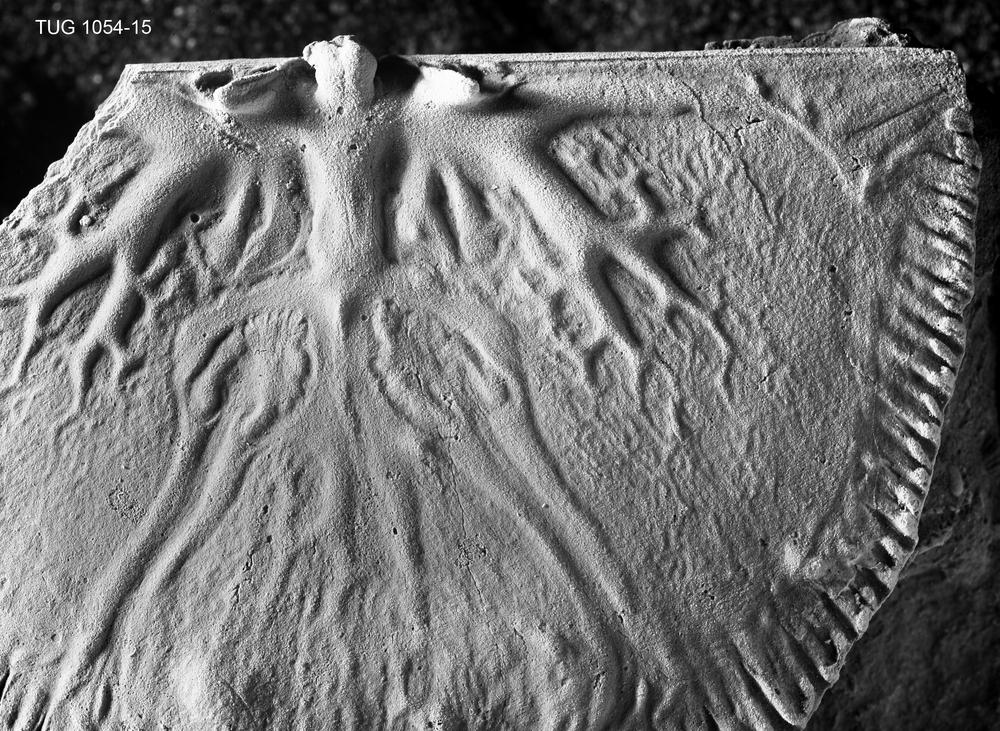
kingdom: Animalia
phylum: Brachiopoda
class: Rhynchonellata
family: Orthidae
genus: Cyrtonotella
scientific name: Cyrtonotella Orthis kuckersiana
